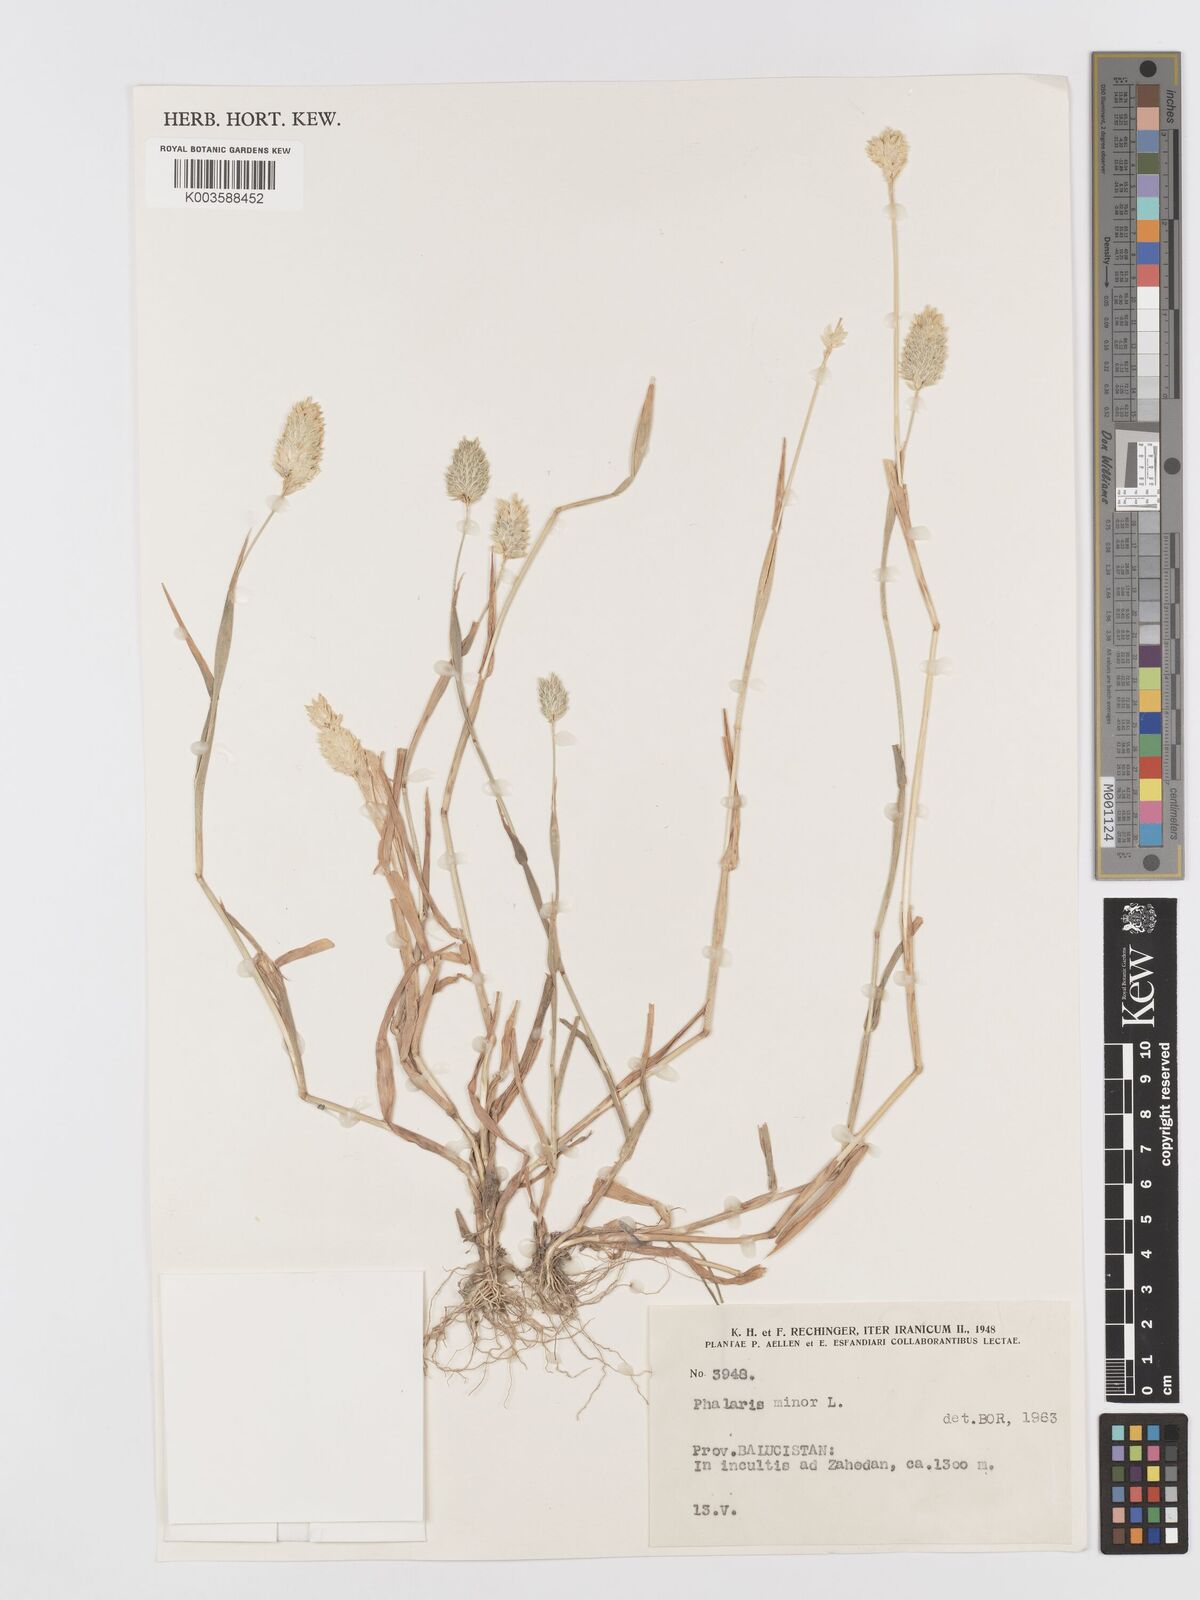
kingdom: Plantae
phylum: Tracheophyta
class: Liliopsida
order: Poales
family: Poaceae
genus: Phalaris
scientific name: Phalaris minor
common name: Littleseed canarygrass
